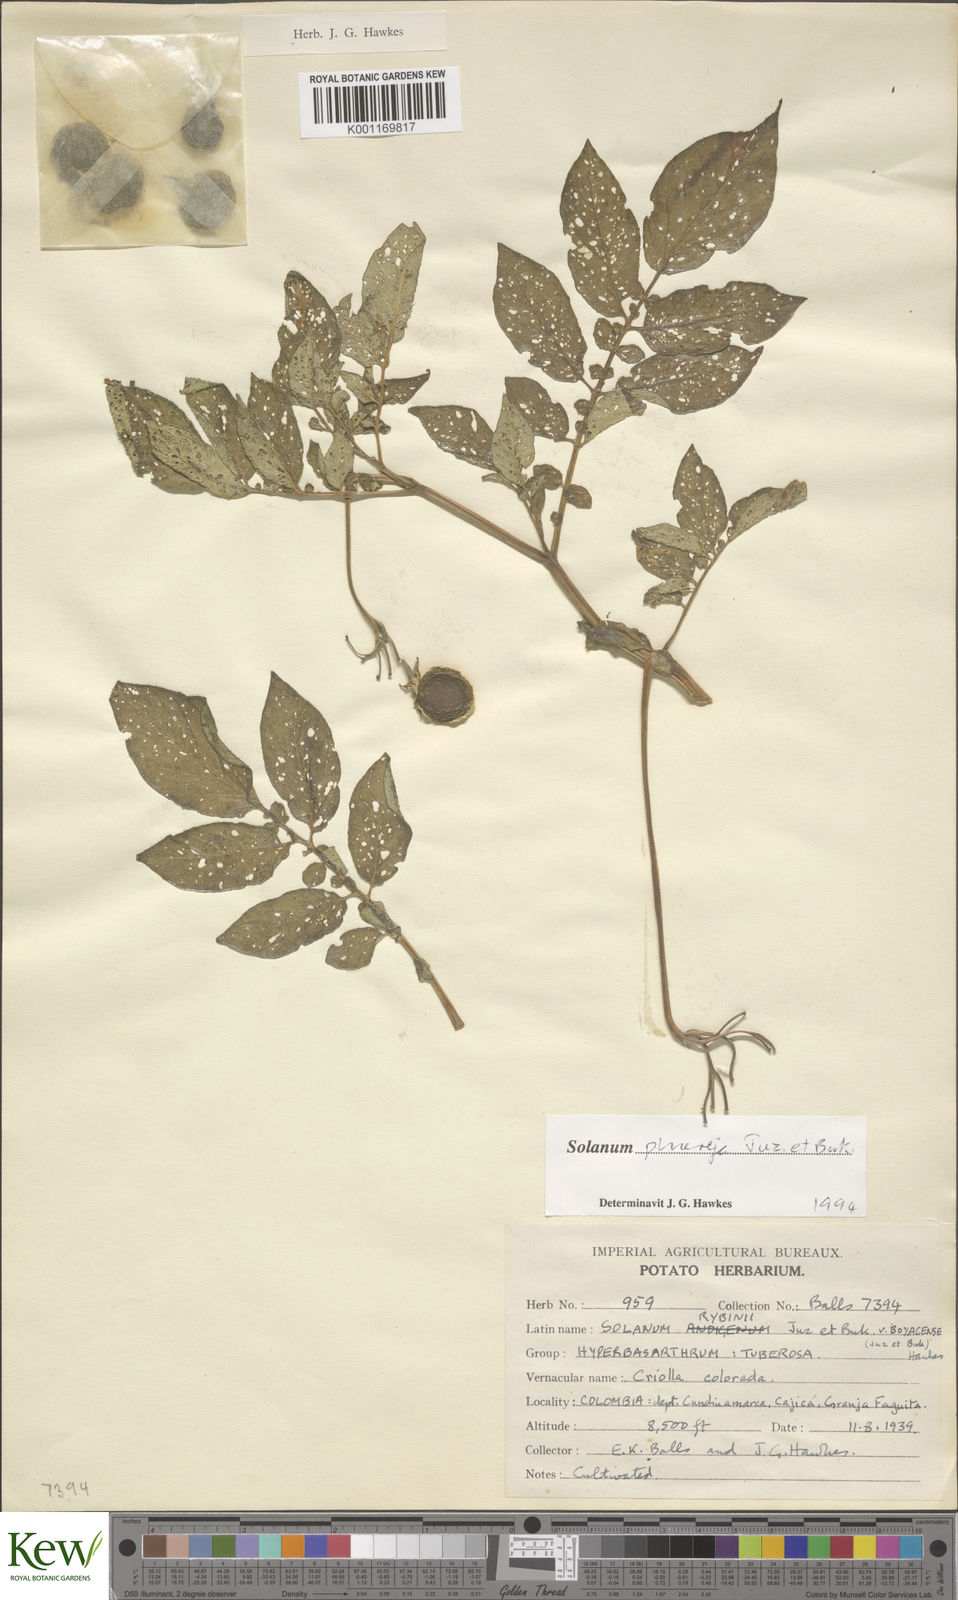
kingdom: Plantae
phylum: Tracheophyta
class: Magnoliopsida
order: Solanales
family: Solanaceae
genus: Solanum
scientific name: Solanum tuberosum
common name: Potato
